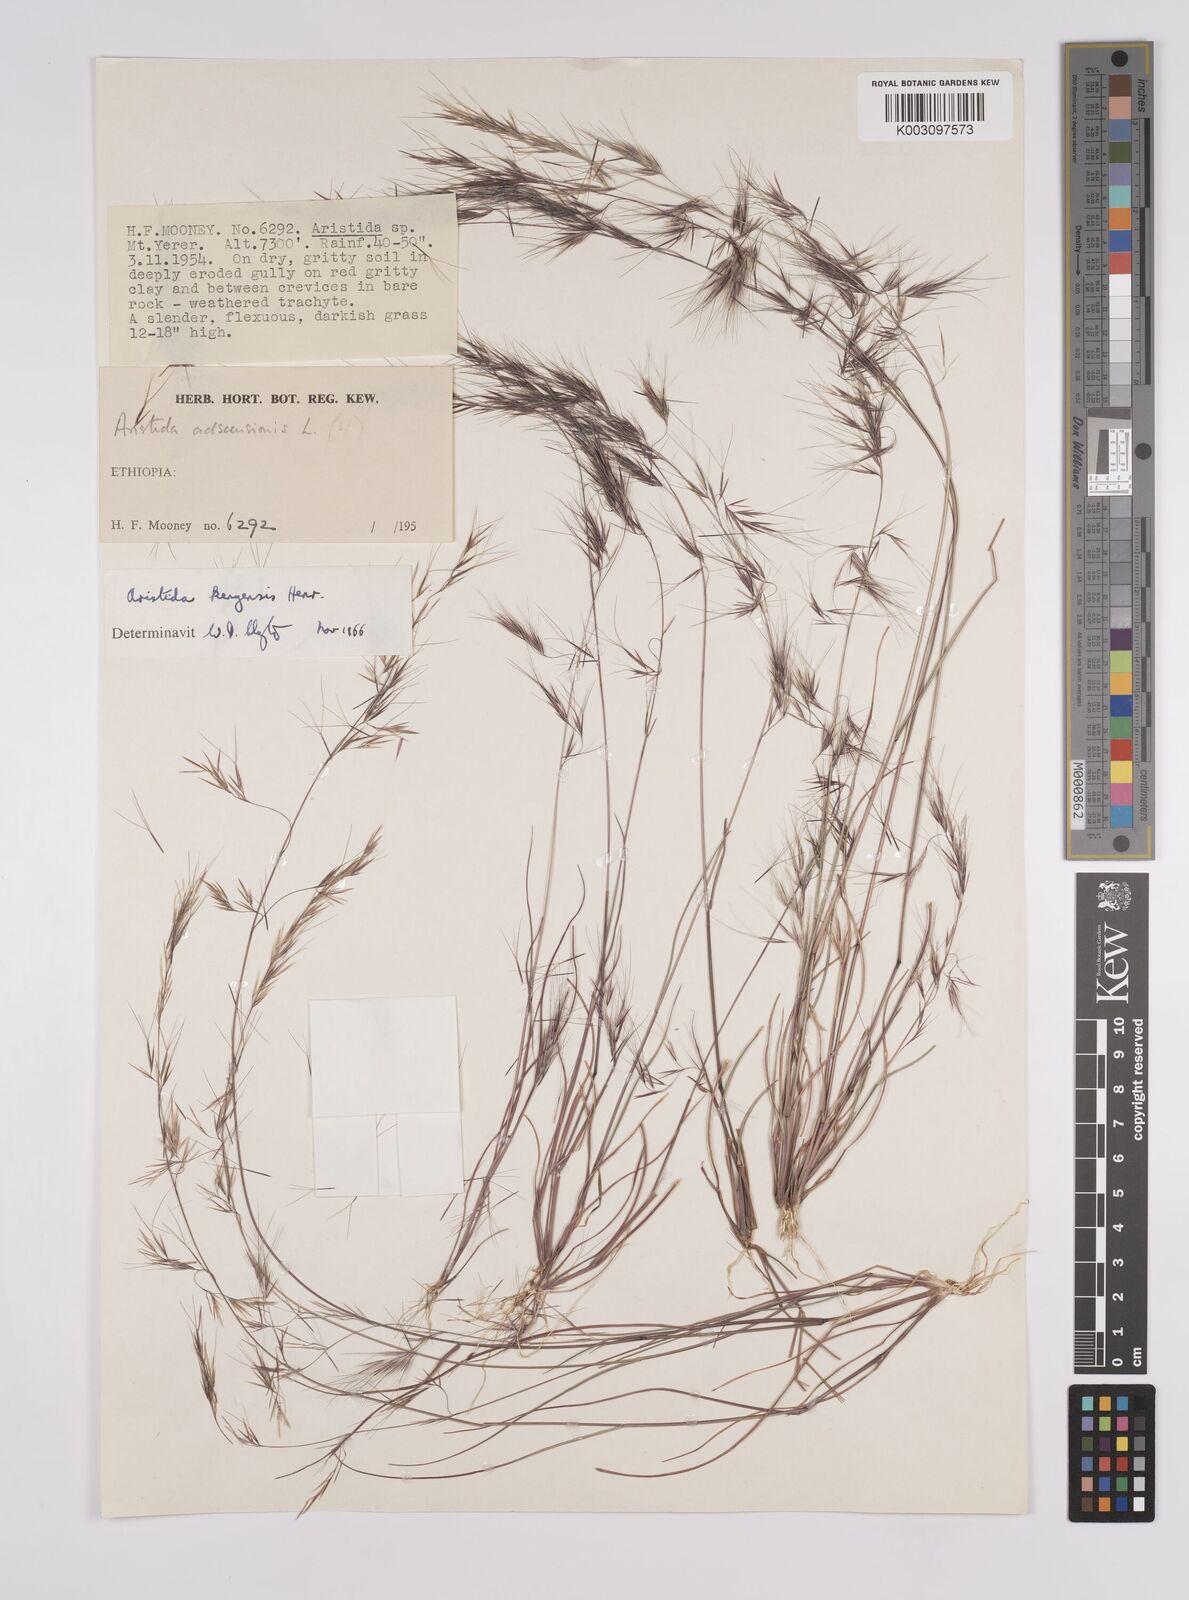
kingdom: Plantae
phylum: Tracheophyta
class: Liliopsida
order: Poales
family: Poaceae
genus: Aristida
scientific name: Aristida kenyensis
